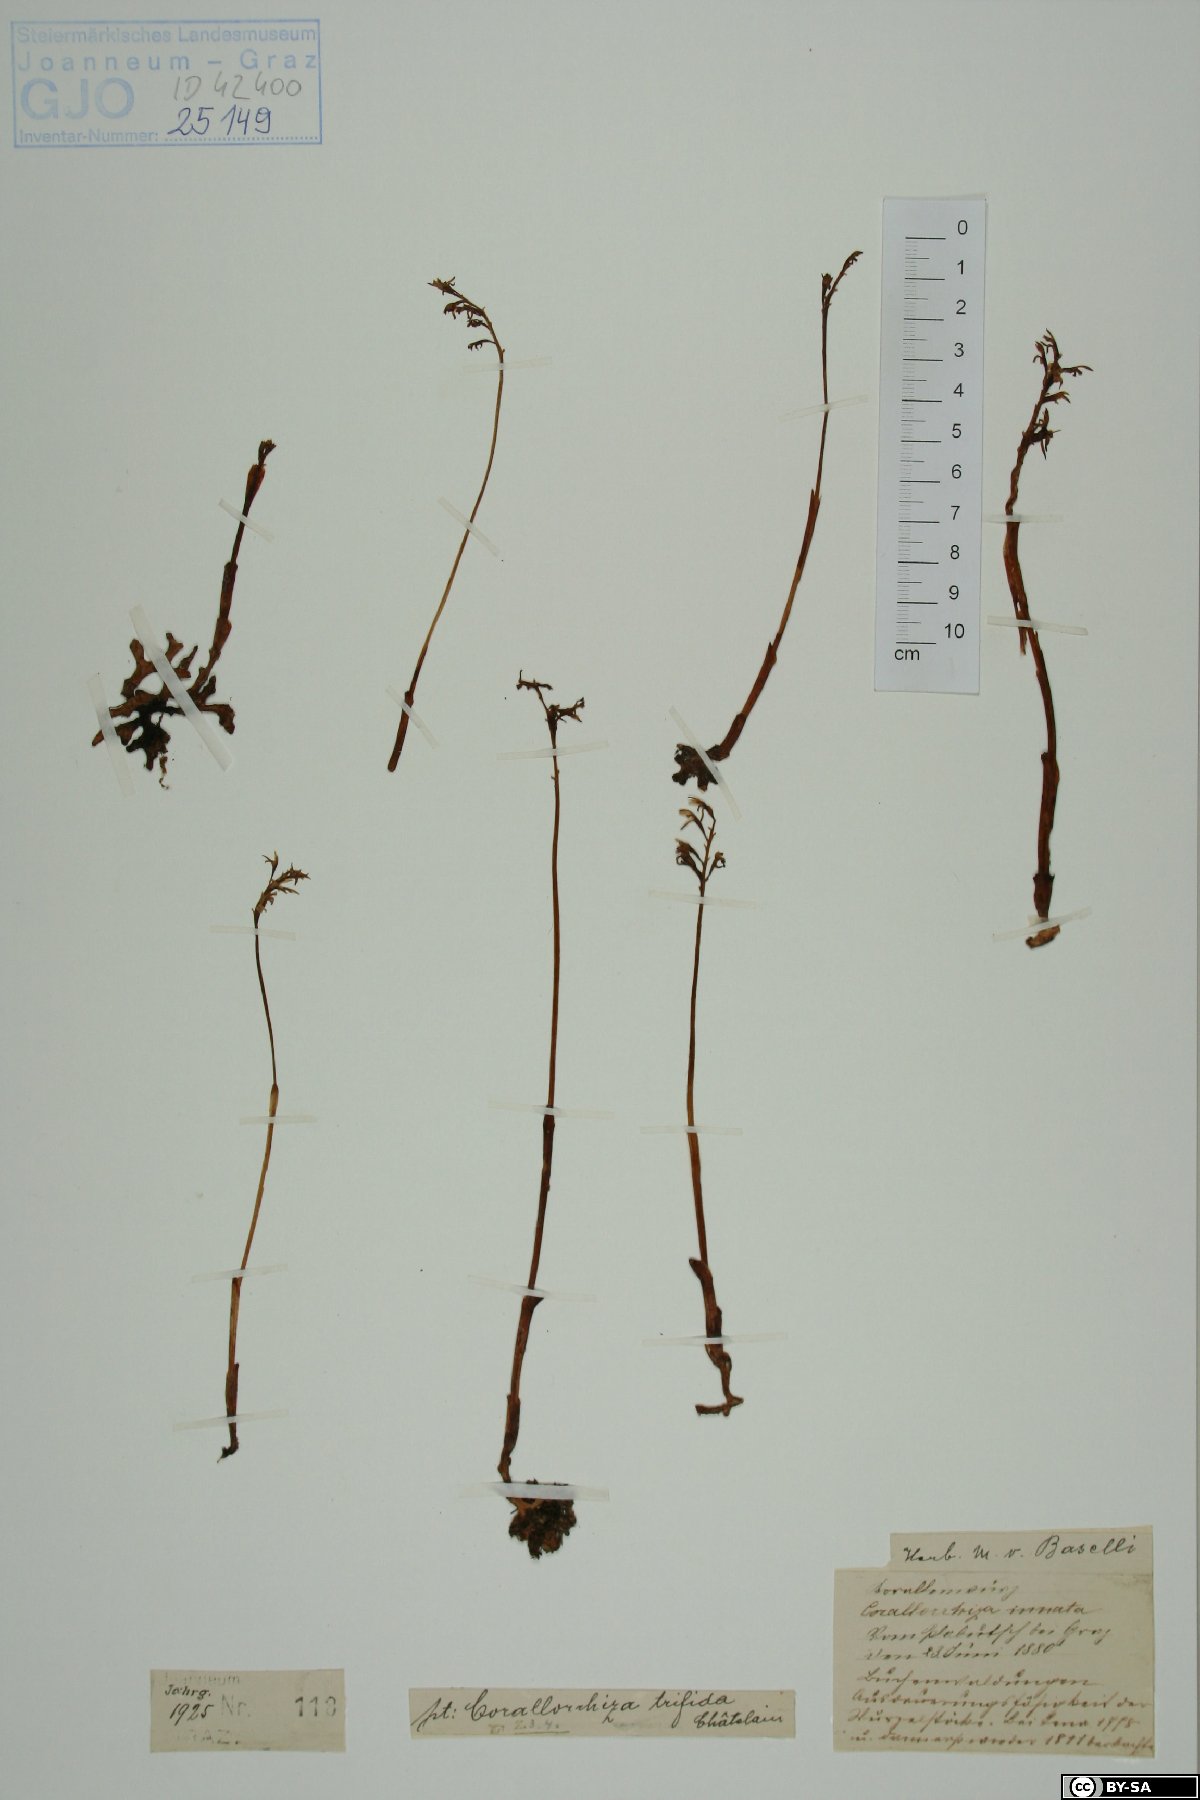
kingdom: Plantae
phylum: Tracheophyta
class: Liliopsida
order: Asparagales
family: Orchidaceae
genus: Corallorhiza
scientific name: Corallorhiza trifida
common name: Yellow coralroot
